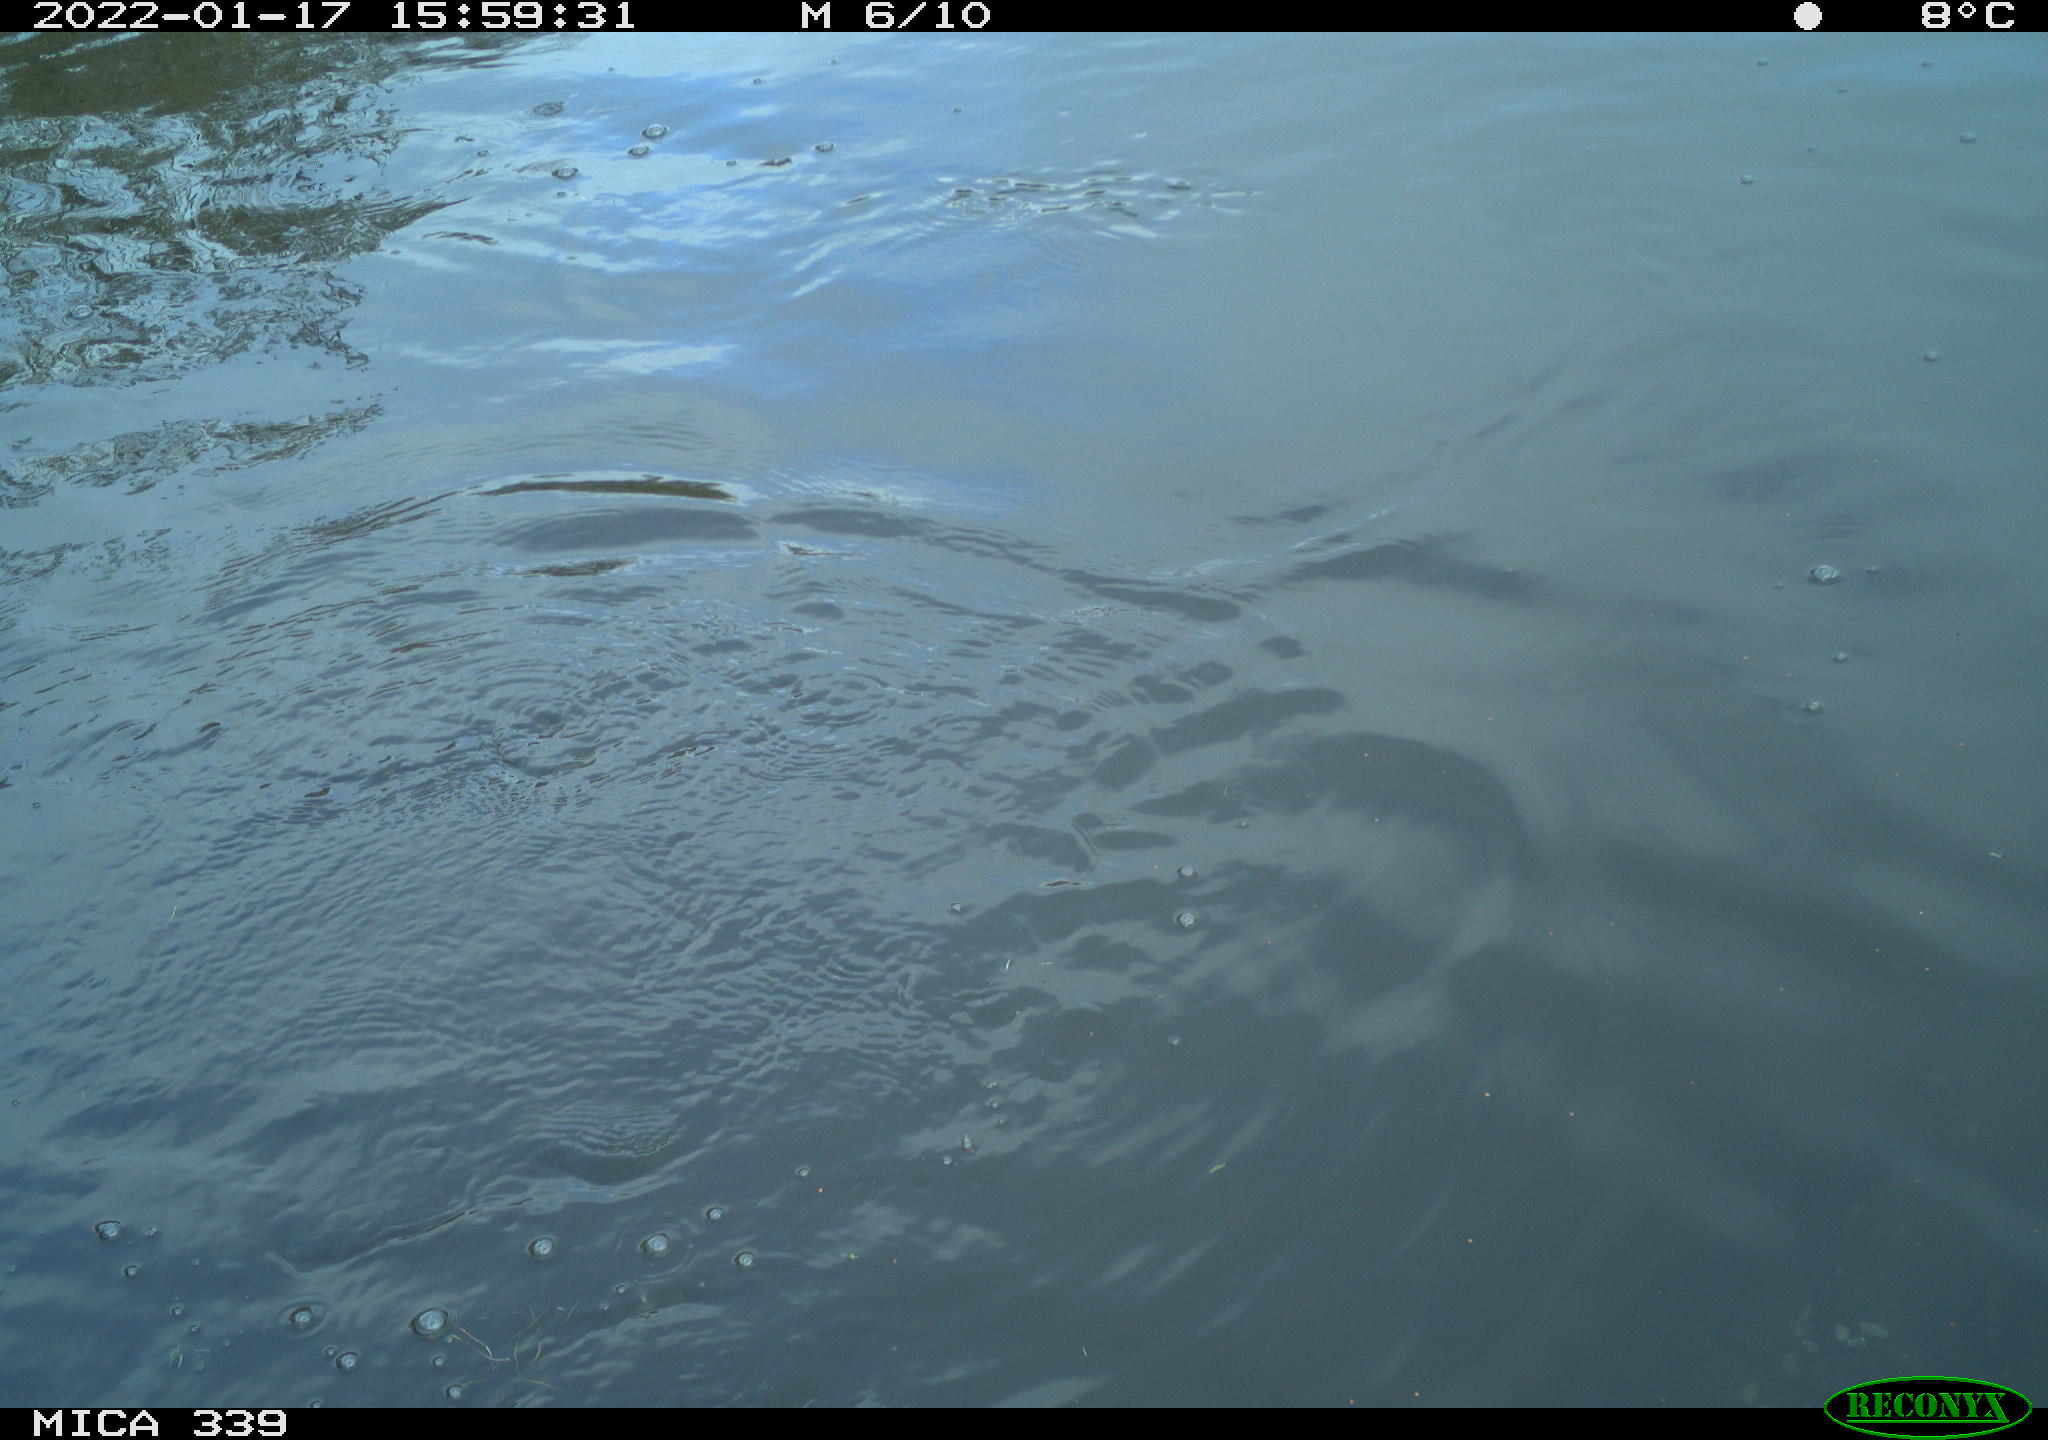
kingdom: Animalia
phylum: Chordata
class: Aves
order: Suliformes
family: Phalacrocoracidae
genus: Phalacrocorax
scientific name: Phalacrocorax carbo
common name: Great cormorant
